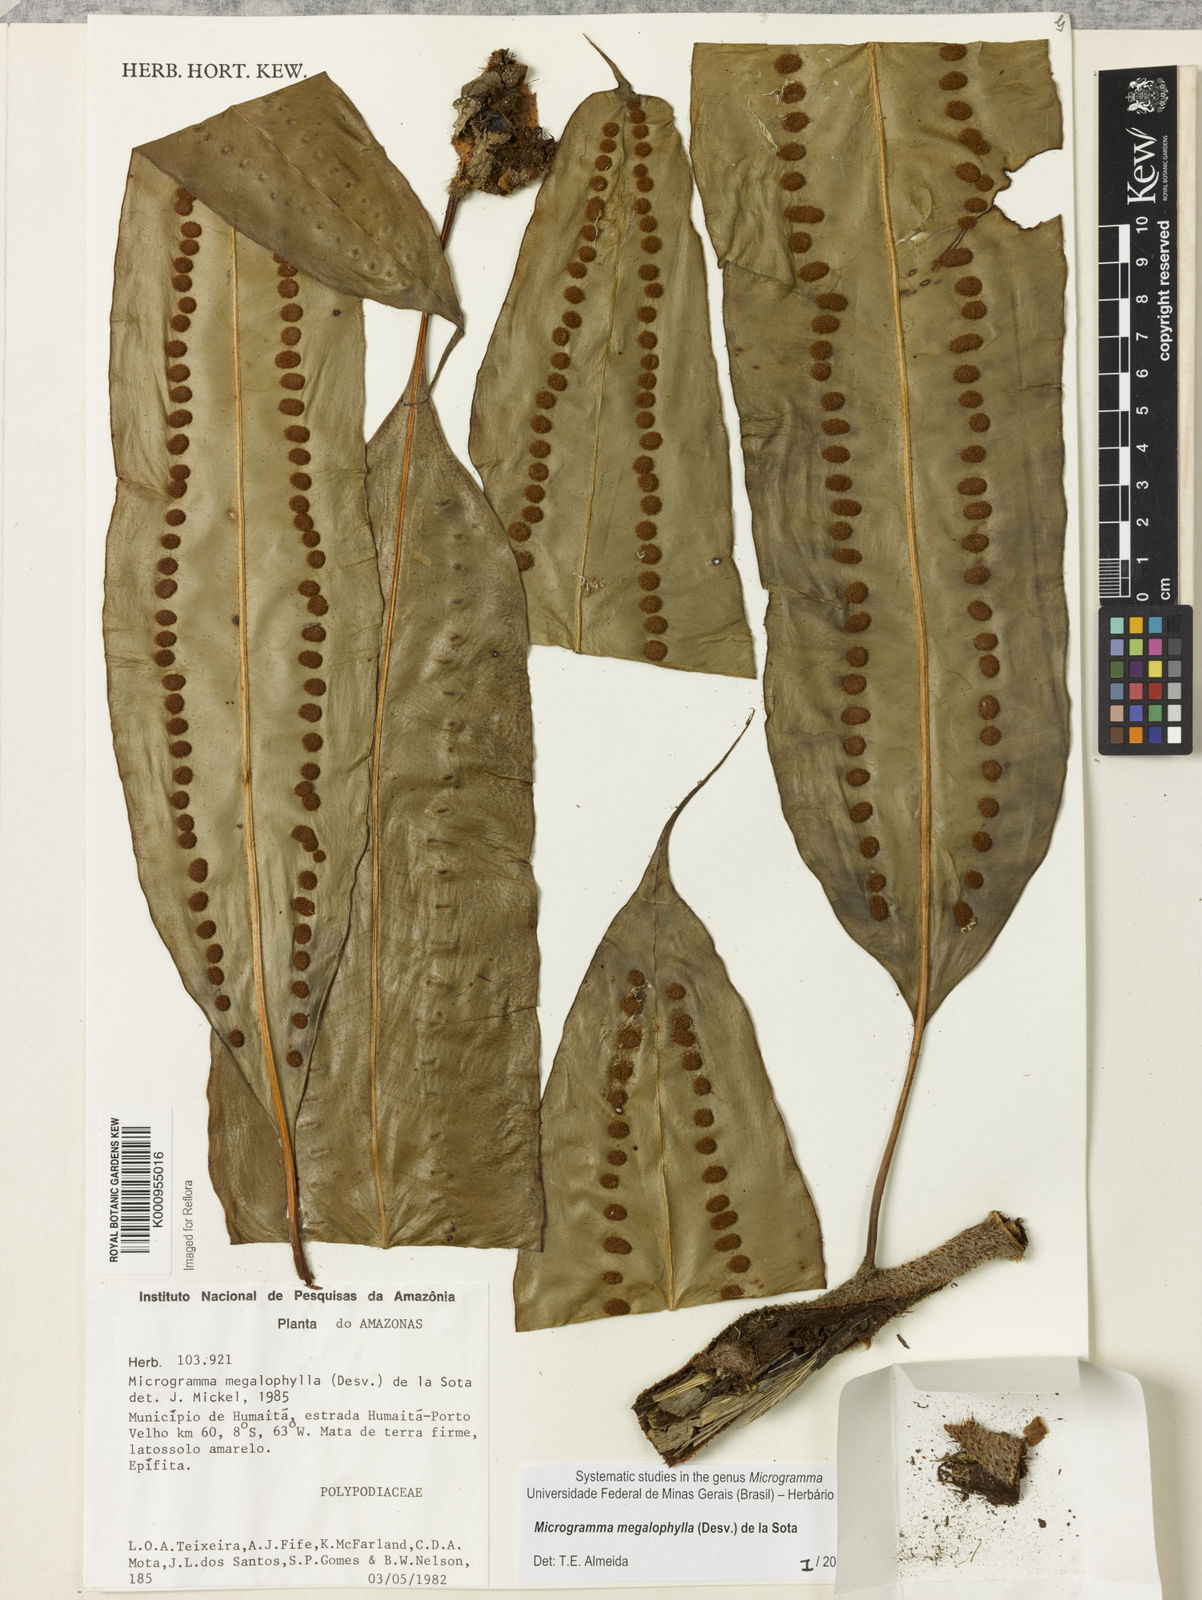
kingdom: Plantae
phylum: Tracheophyta
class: Polypodiopsida
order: Polypodiales
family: Polypodiaceae
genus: Microgramma
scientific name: Microgramma megalophylla
